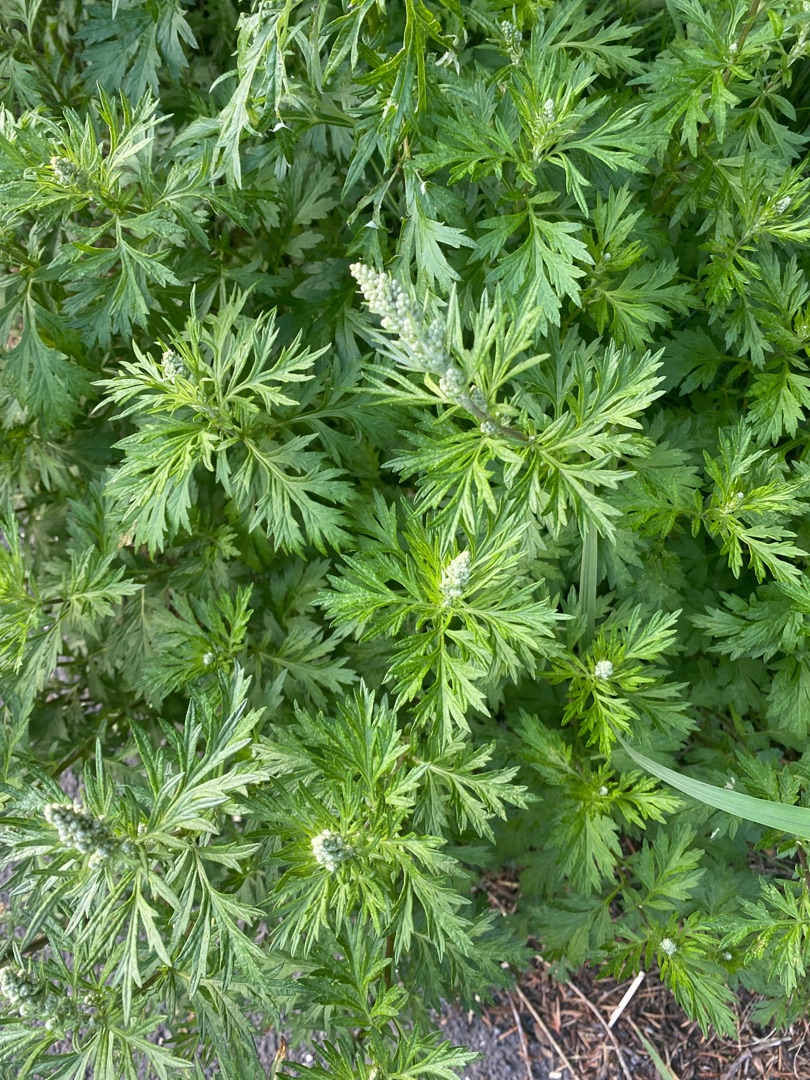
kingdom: Plantae
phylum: Tracheophyta
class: Magnoliopsida
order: Asterales
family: Asteraceae
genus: Artemisia
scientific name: Artemisia vulgaris
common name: Grå-bynke
